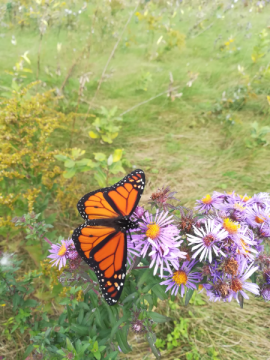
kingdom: Animalia
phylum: Arthropoda
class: Insecta
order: Lepidoptera
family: Nymphalidae
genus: Danaus
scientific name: Danaus plexippus
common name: Monarch
